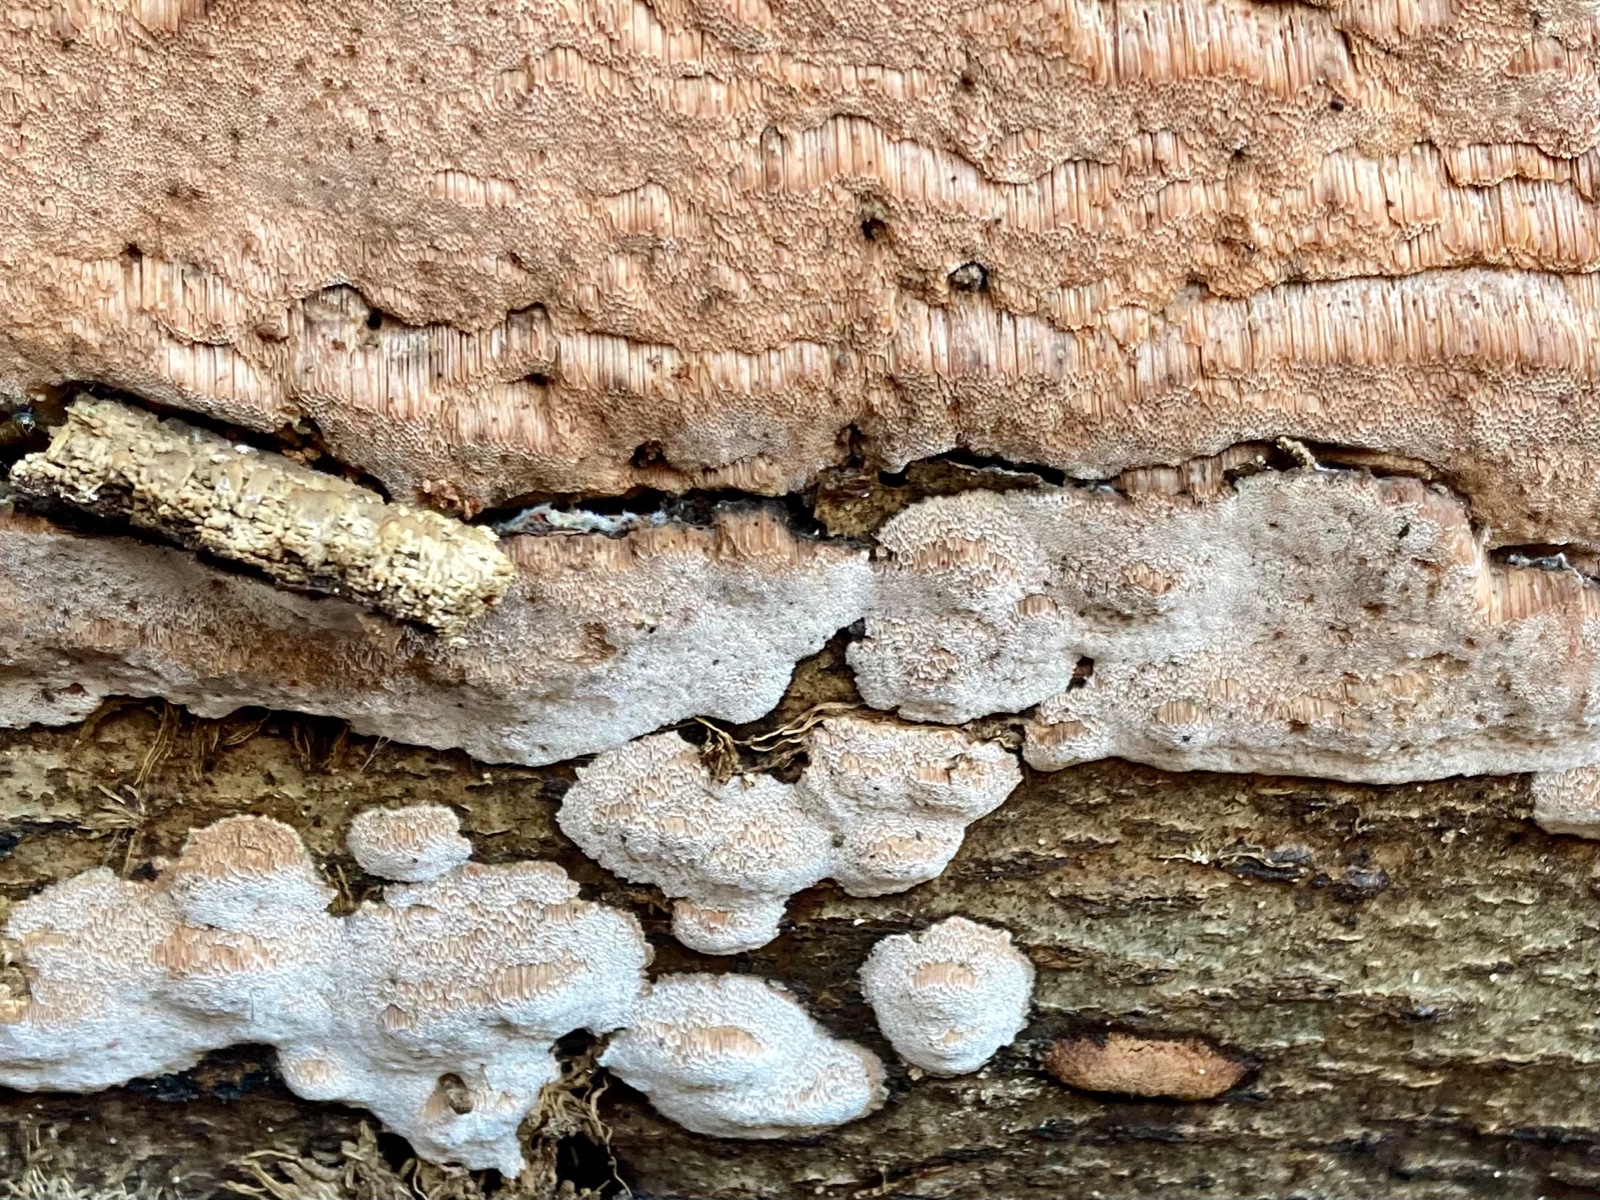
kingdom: Fungi
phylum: Basidiomycota
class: Agaricomycetes
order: Polyporales
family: Meruliaceae
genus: Mycoacia
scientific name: Mycoacia gilvescens
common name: rosa pastelporesvamp
